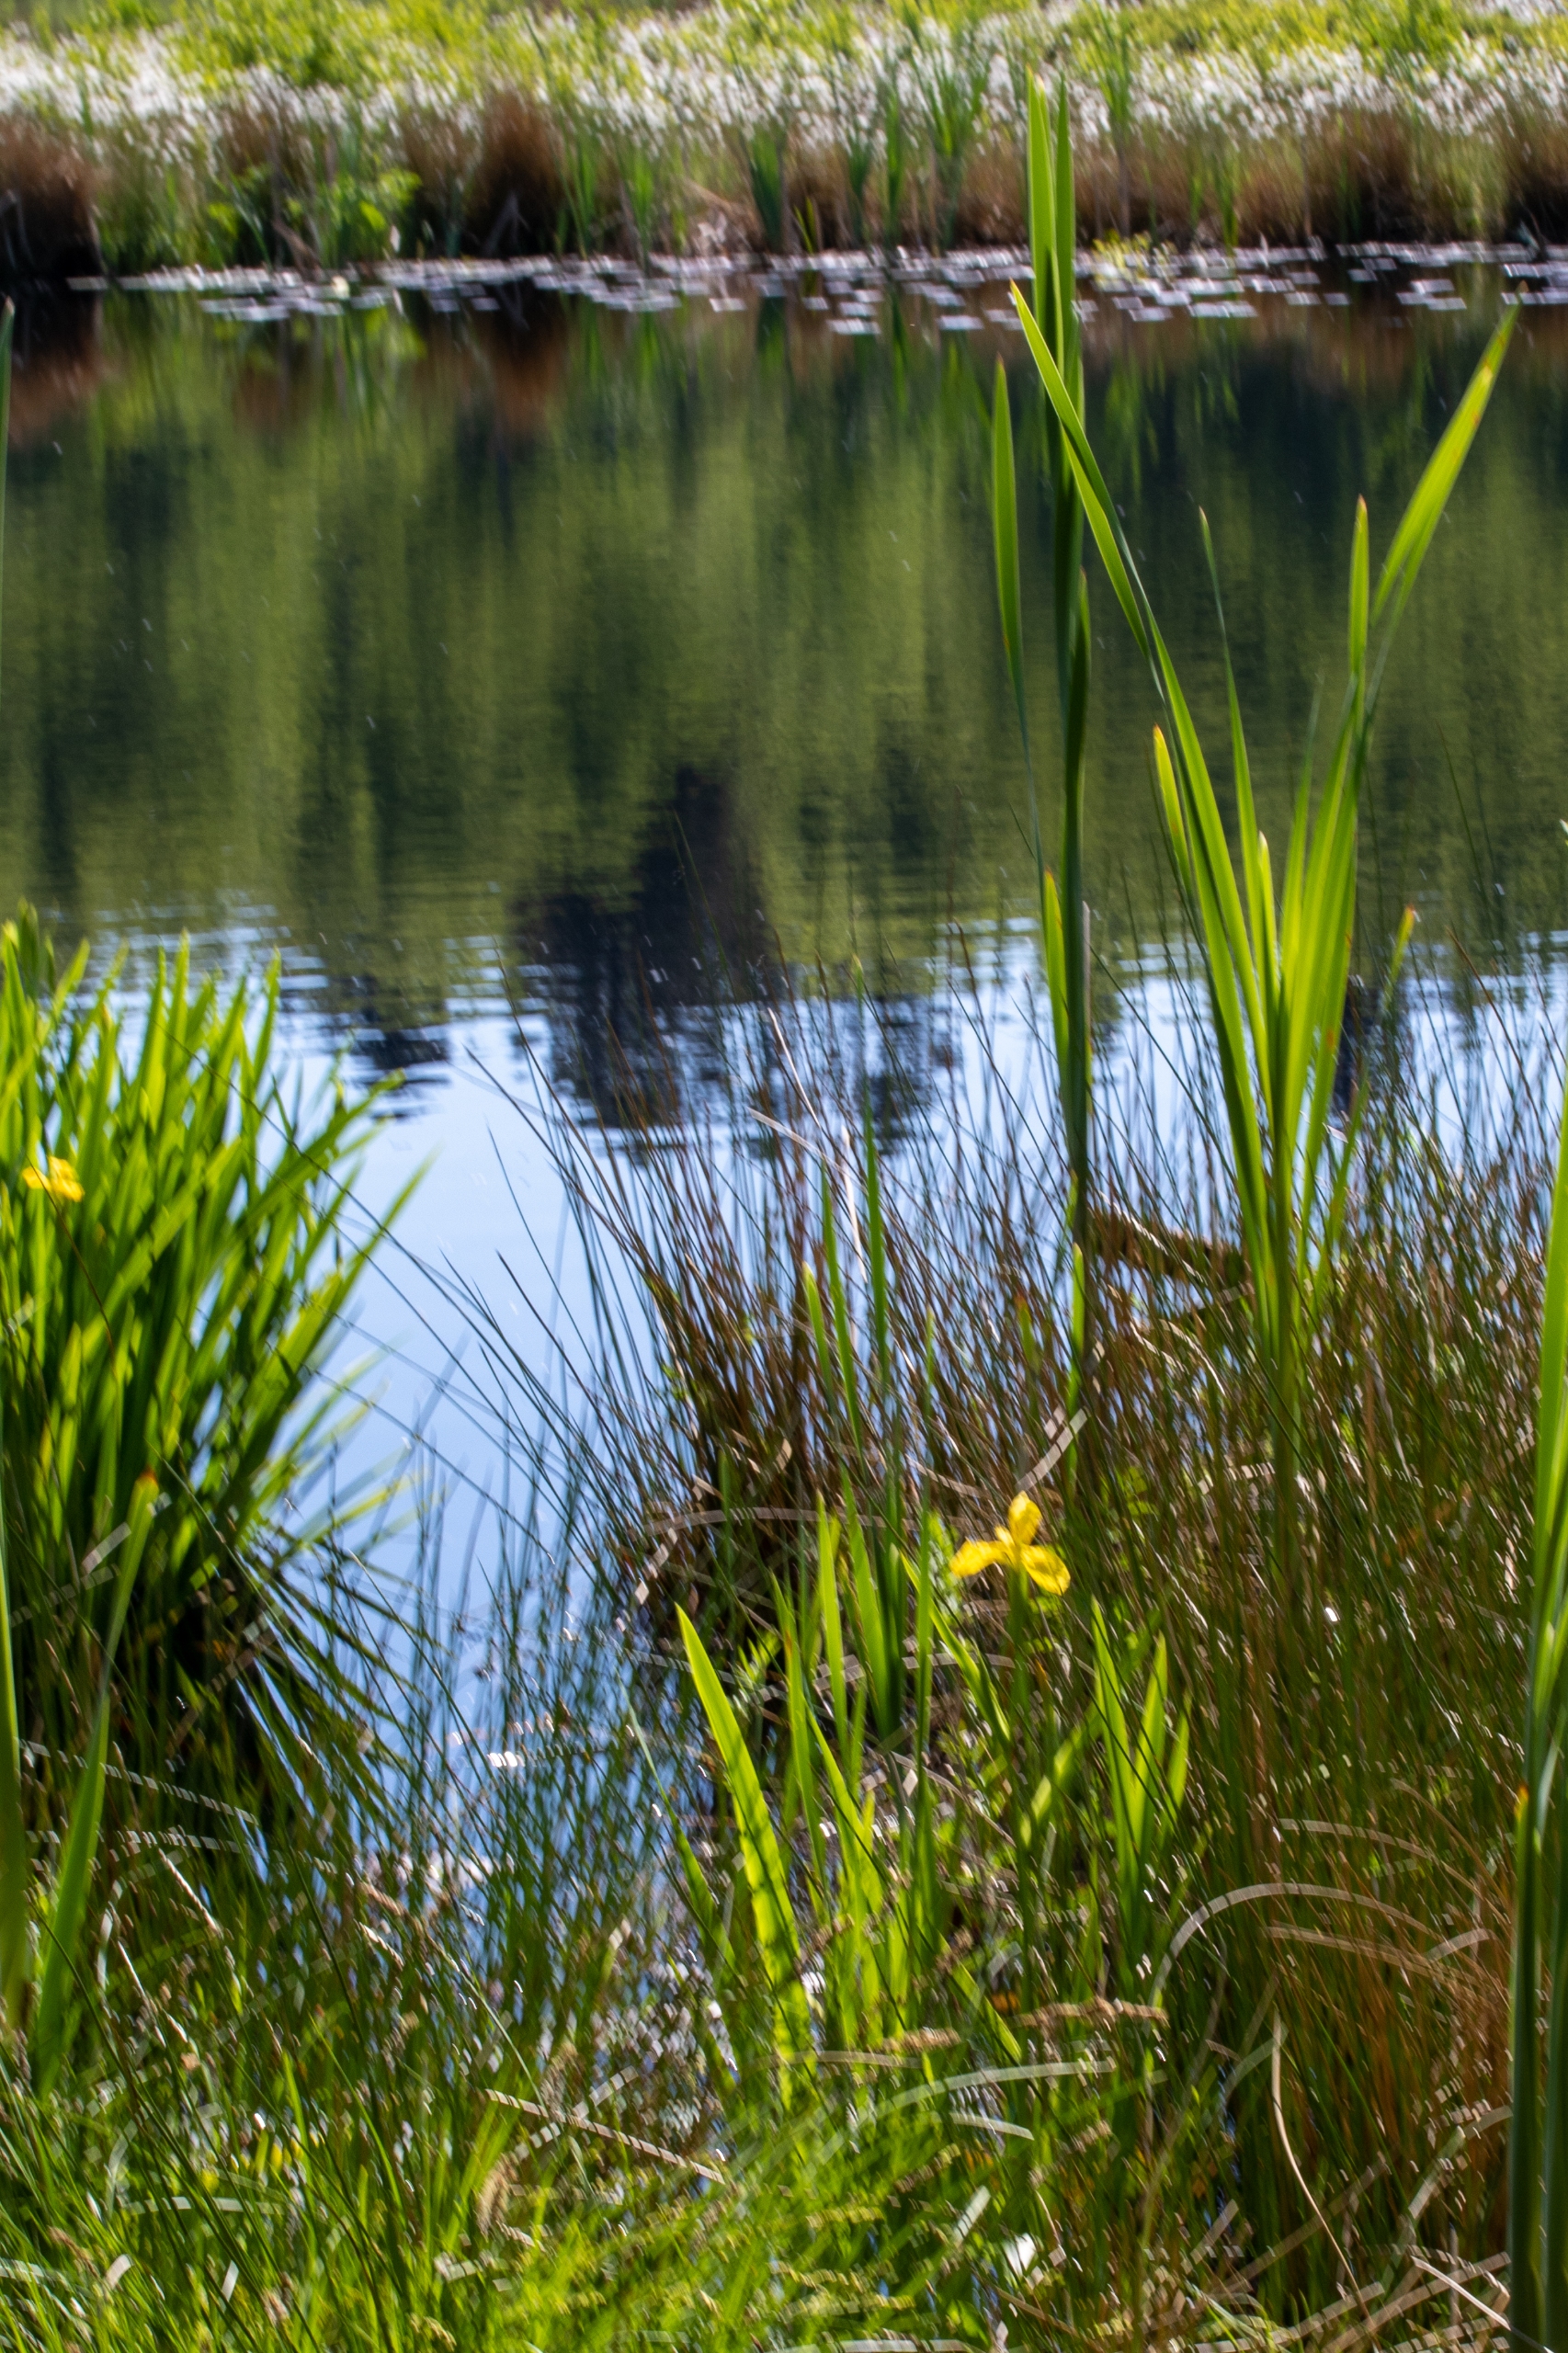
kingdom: Plantae
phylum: Tracheophyta
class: Liliopsida
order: Asparagales
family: Iridaceae
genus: Iris
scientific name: Iris pseudacorus
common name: Gul iris
